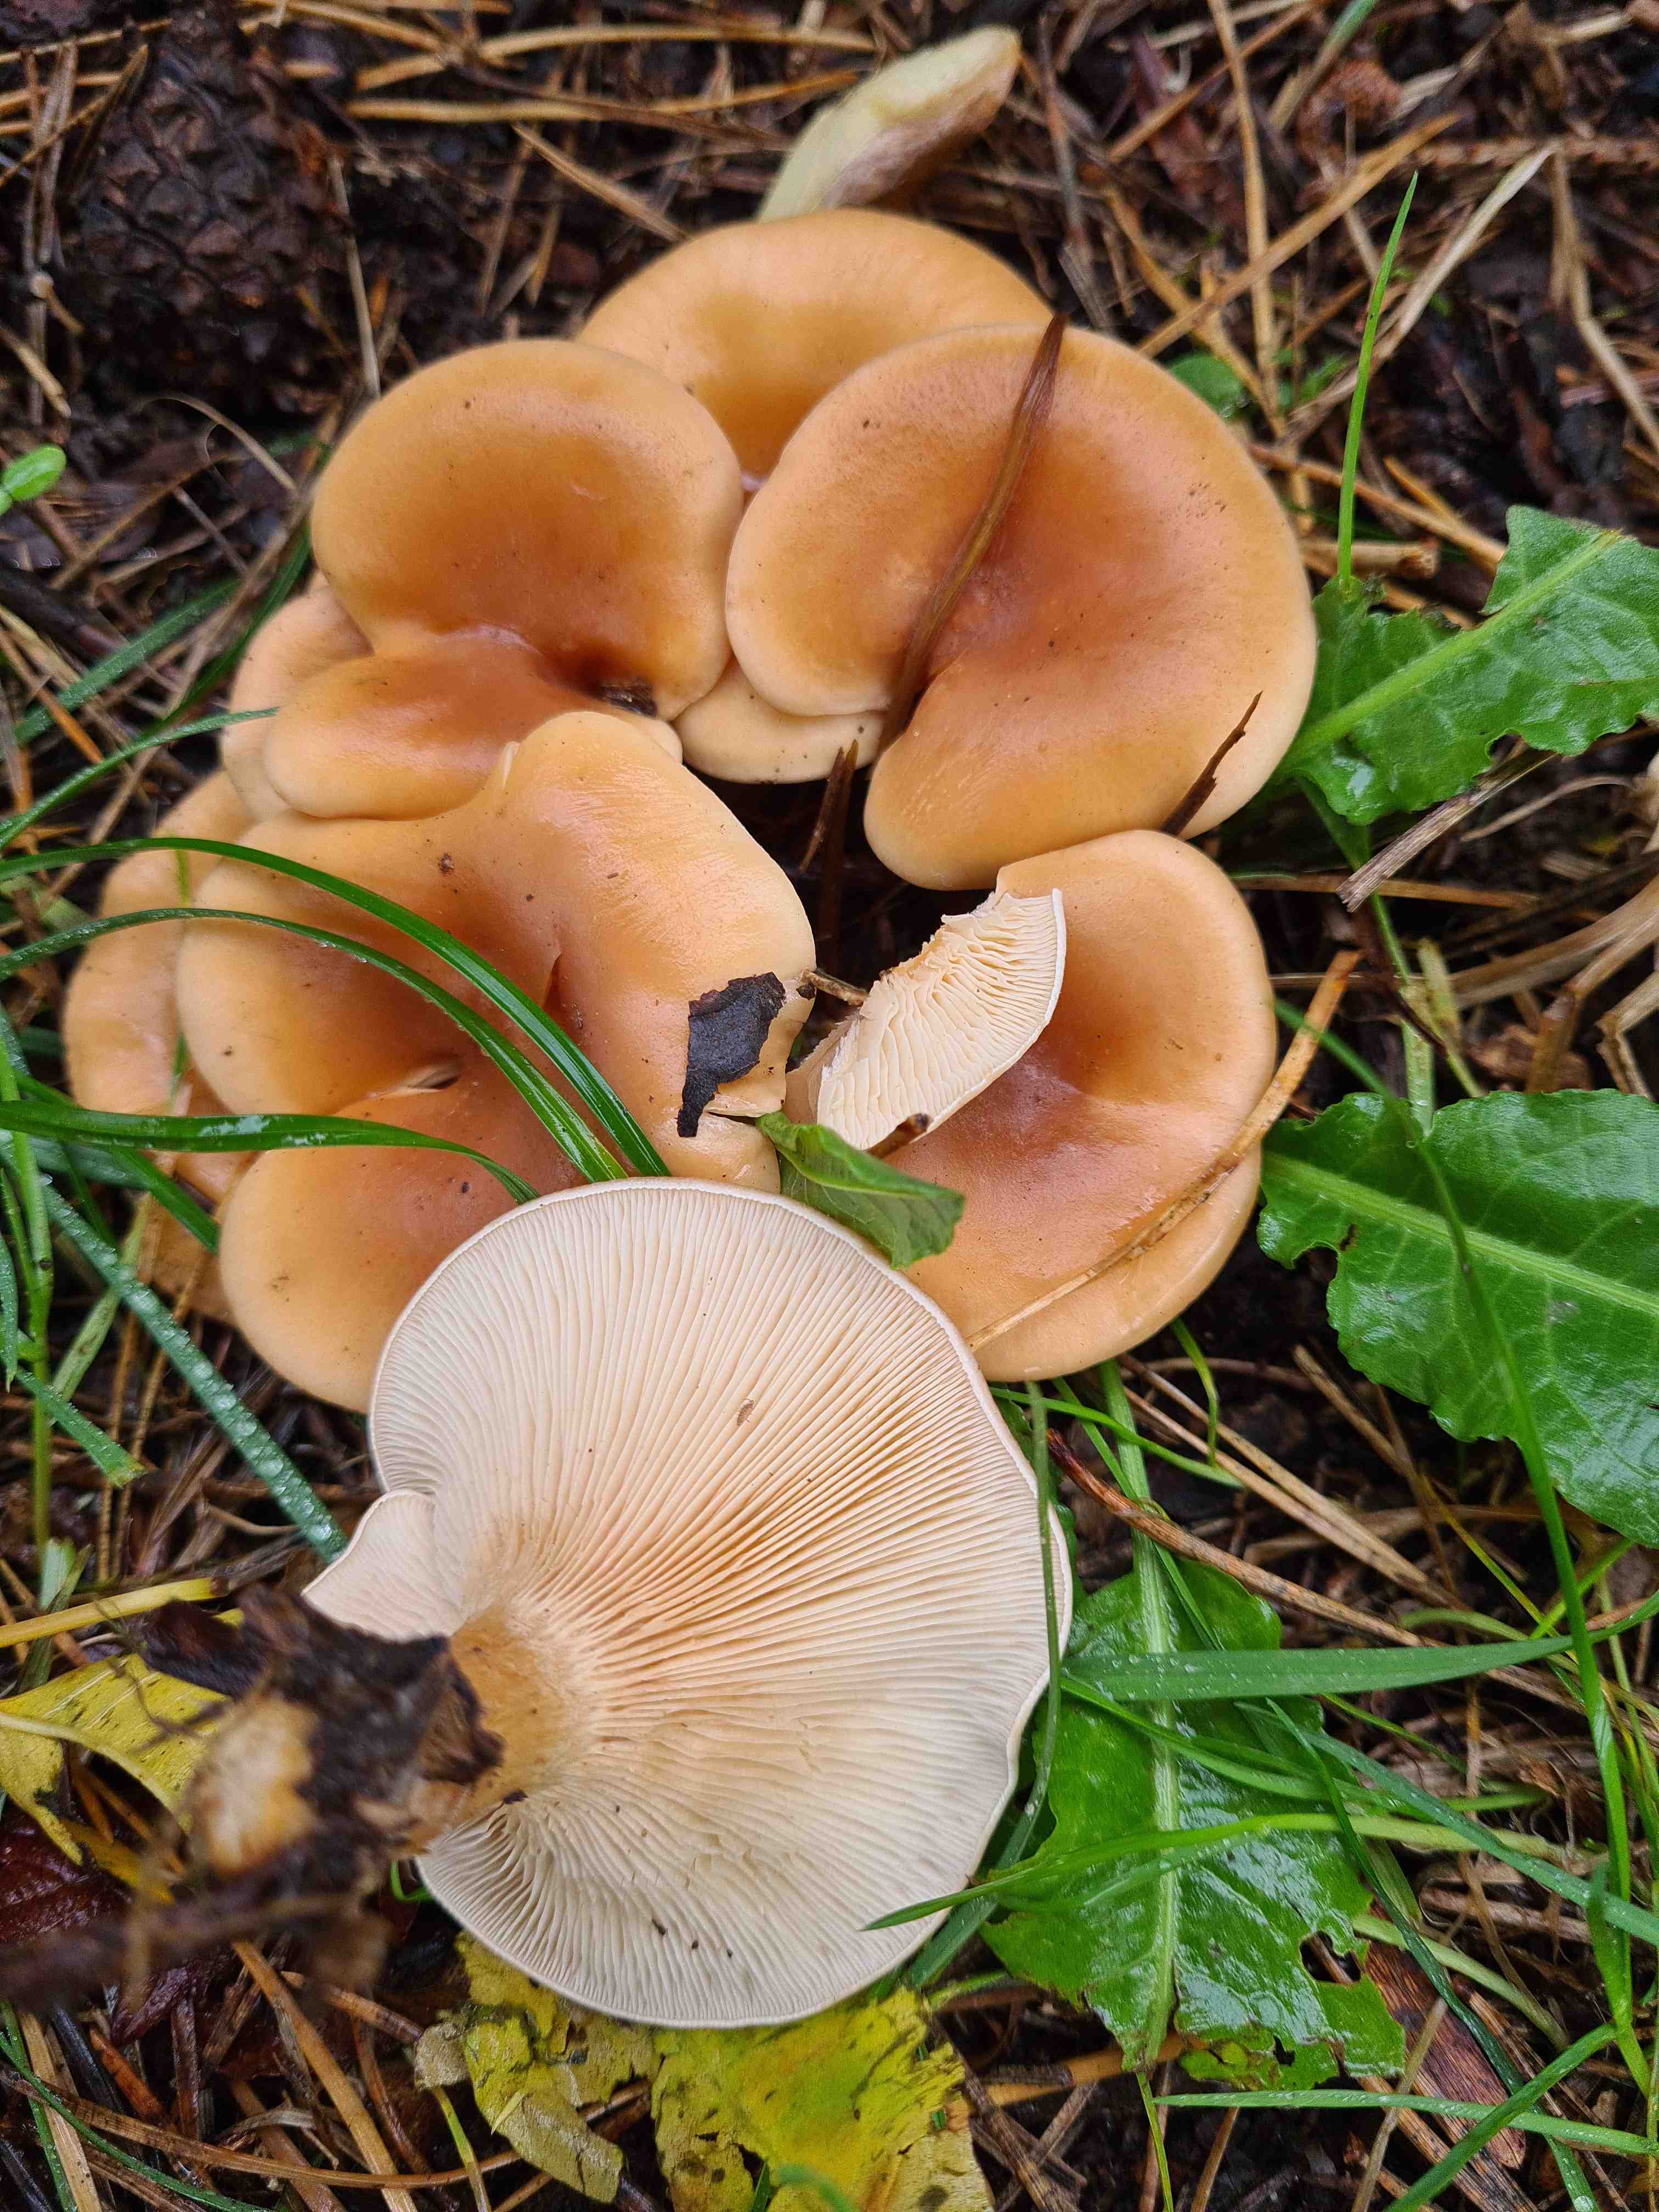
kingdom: Fungi
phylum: Basidiomycota
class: Agaricomycetes
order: Agaricales
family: Tricholomataceae
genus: Paralepista
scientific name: Paralepista flaccida
